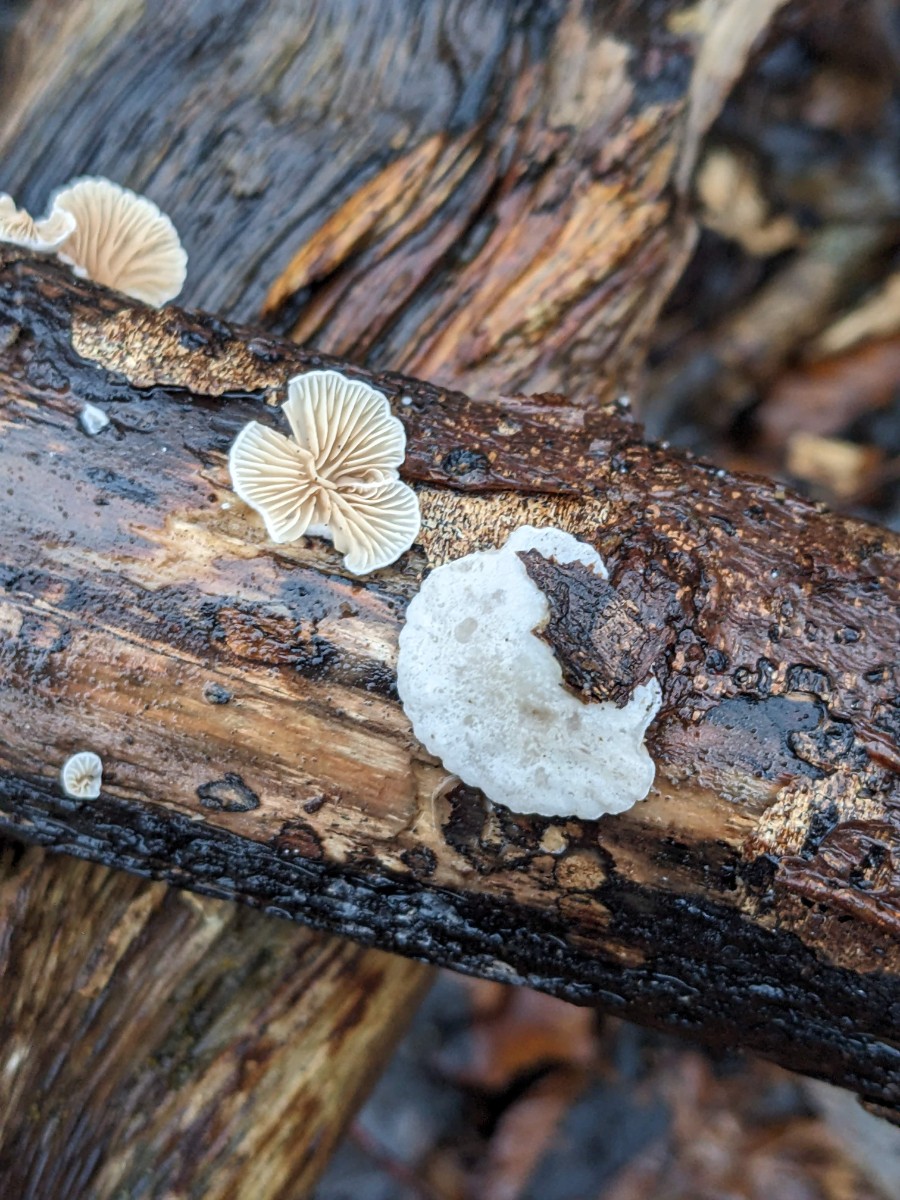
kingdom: Fungi
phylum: Basidiomycota
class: Agaricomycetes
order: Agaricales
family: Crepidotaceae
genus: Crepidotus
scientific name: Crepidotus cesatii
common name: almindelig muslingesvamp
